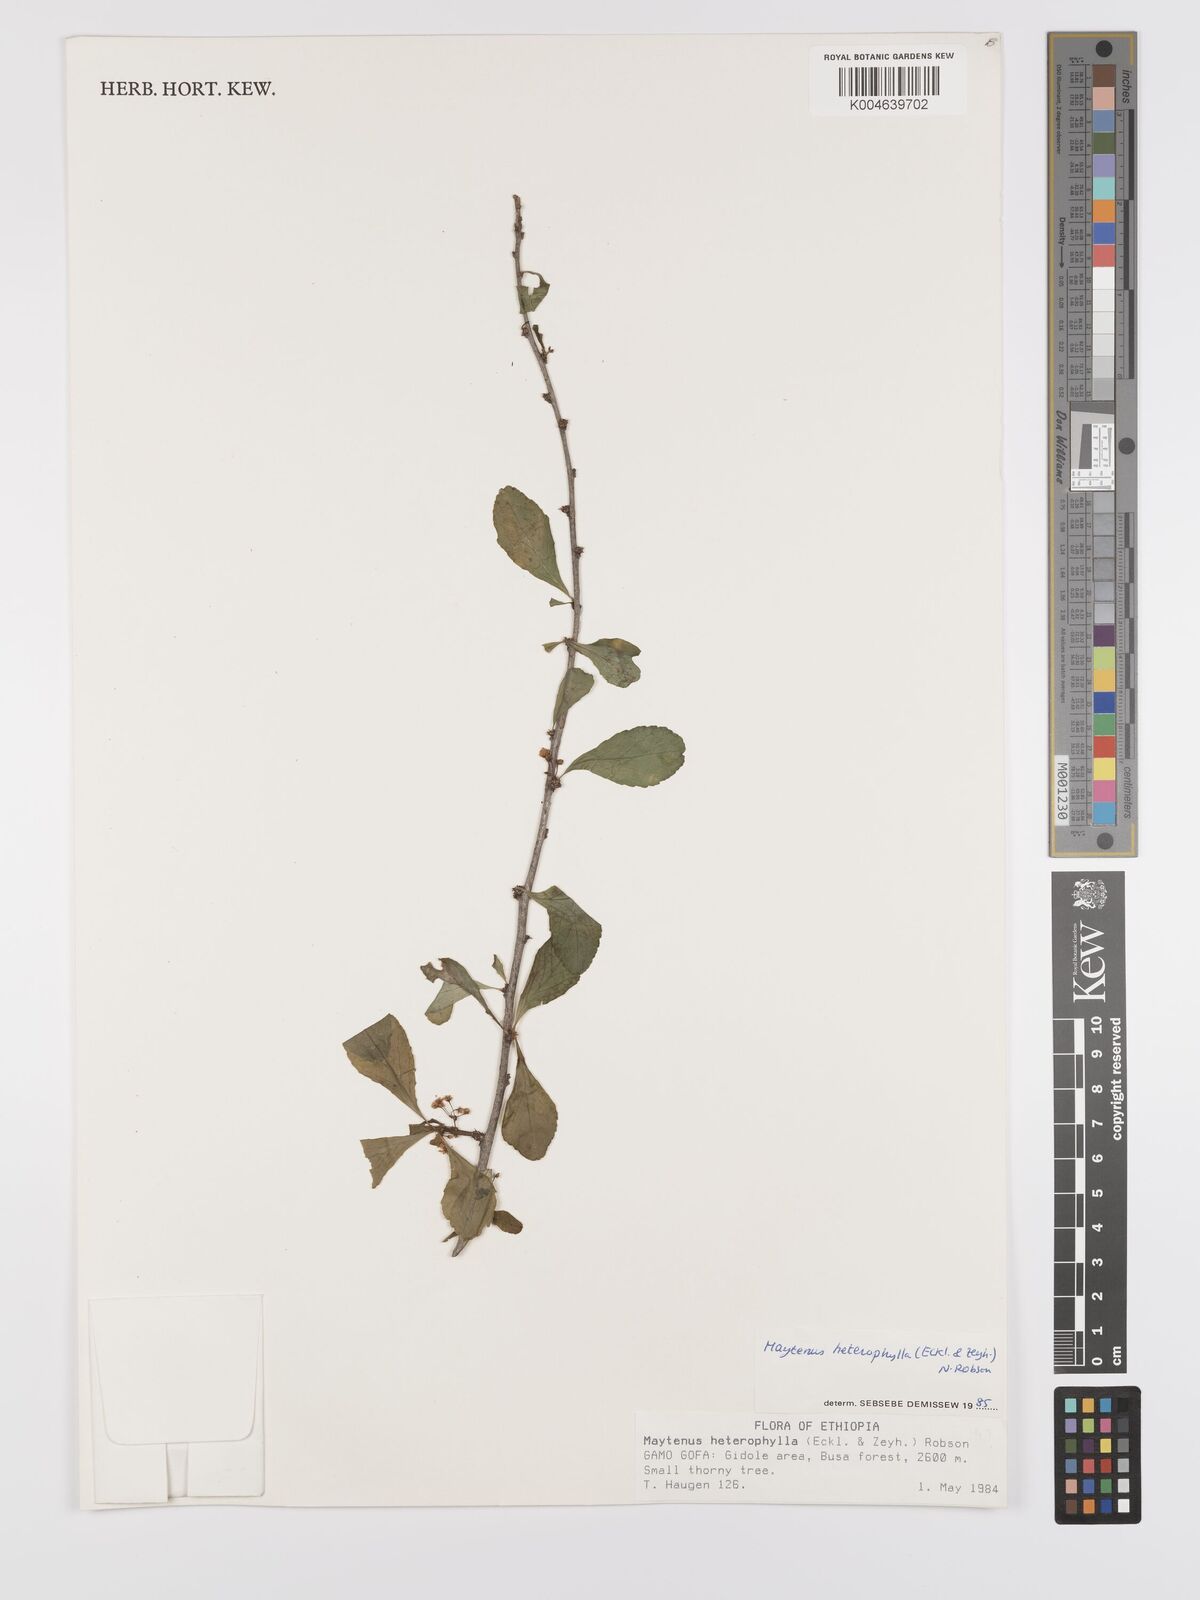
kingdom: Plantae
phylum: Tracheophyta
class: Magnoliopsida
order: Celastrales
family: Celastraceae
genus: Gymnosporia
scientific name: Gymnosporia heterophylla
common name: Angle-stem spikethorn
